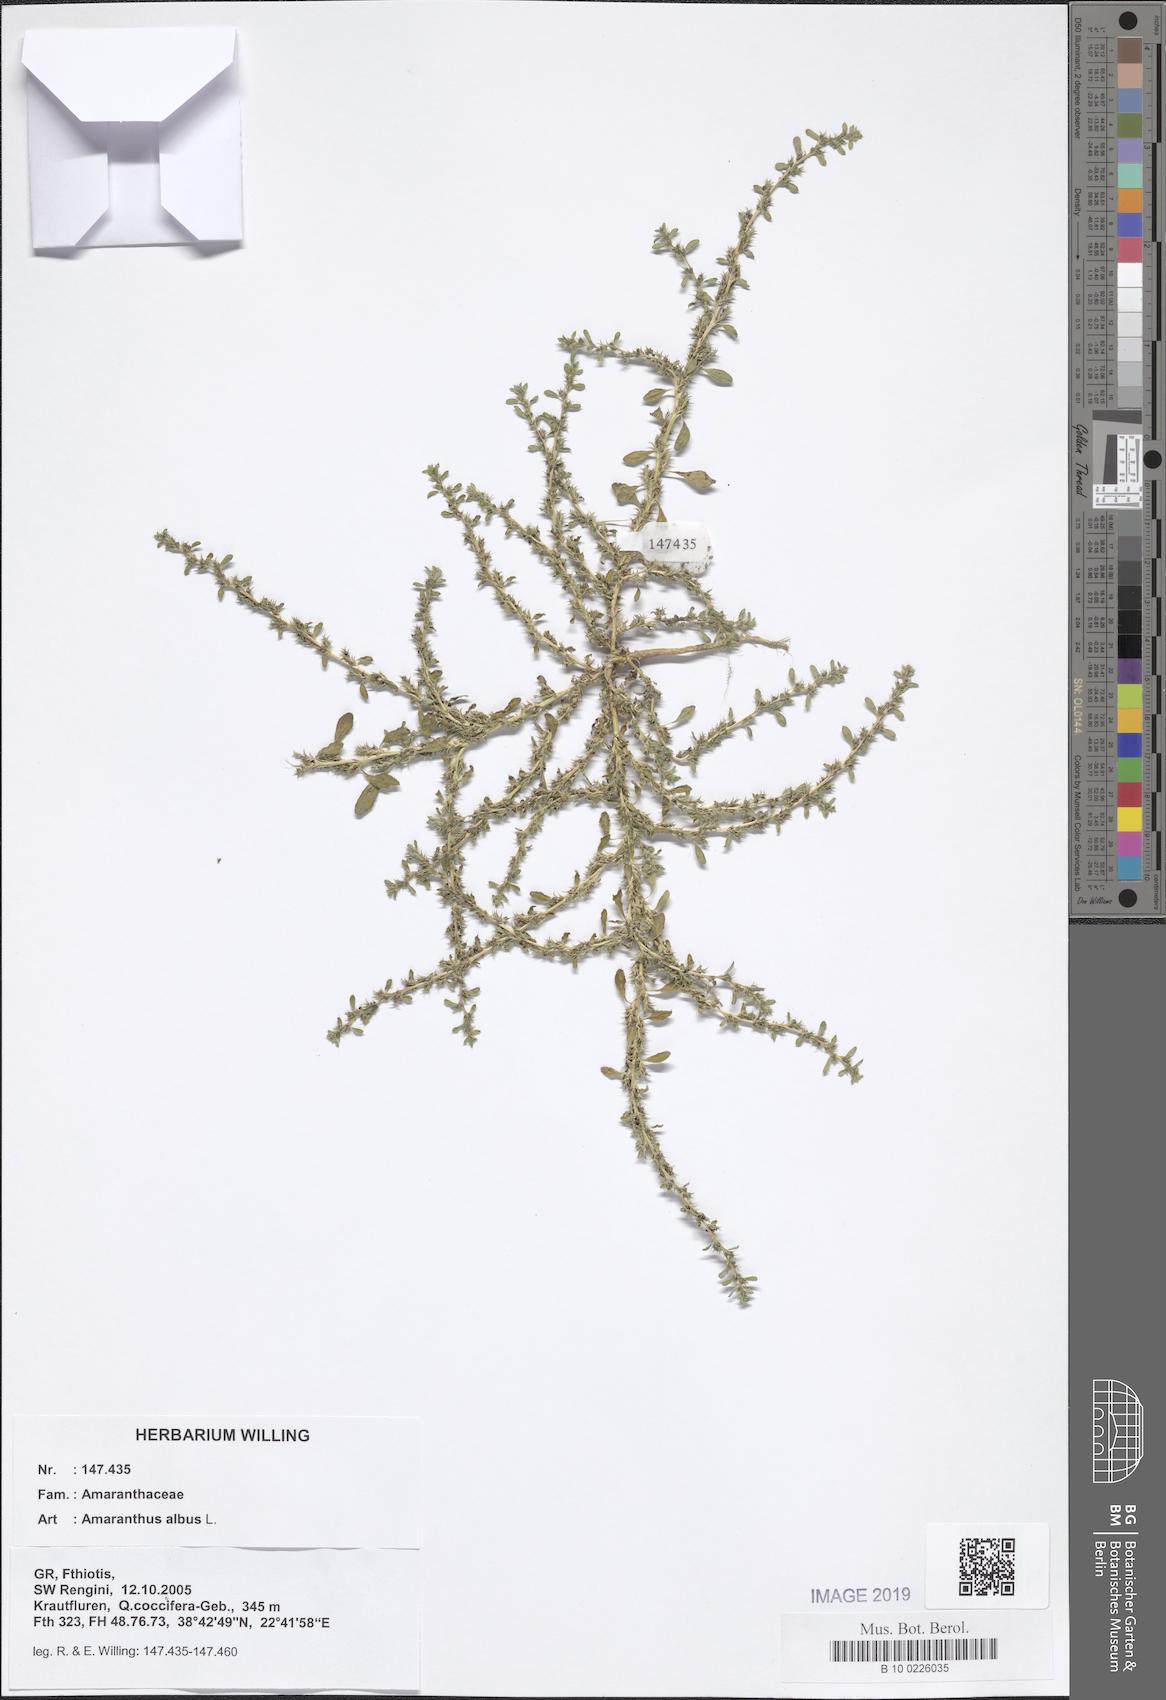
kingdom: Plantae
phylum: Tracheophyta
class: Magnoliopsida
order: Caryophyllales
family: Amaranthaceae
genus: Amaranthus
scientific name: Amaranthus albus
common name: White pigweed
